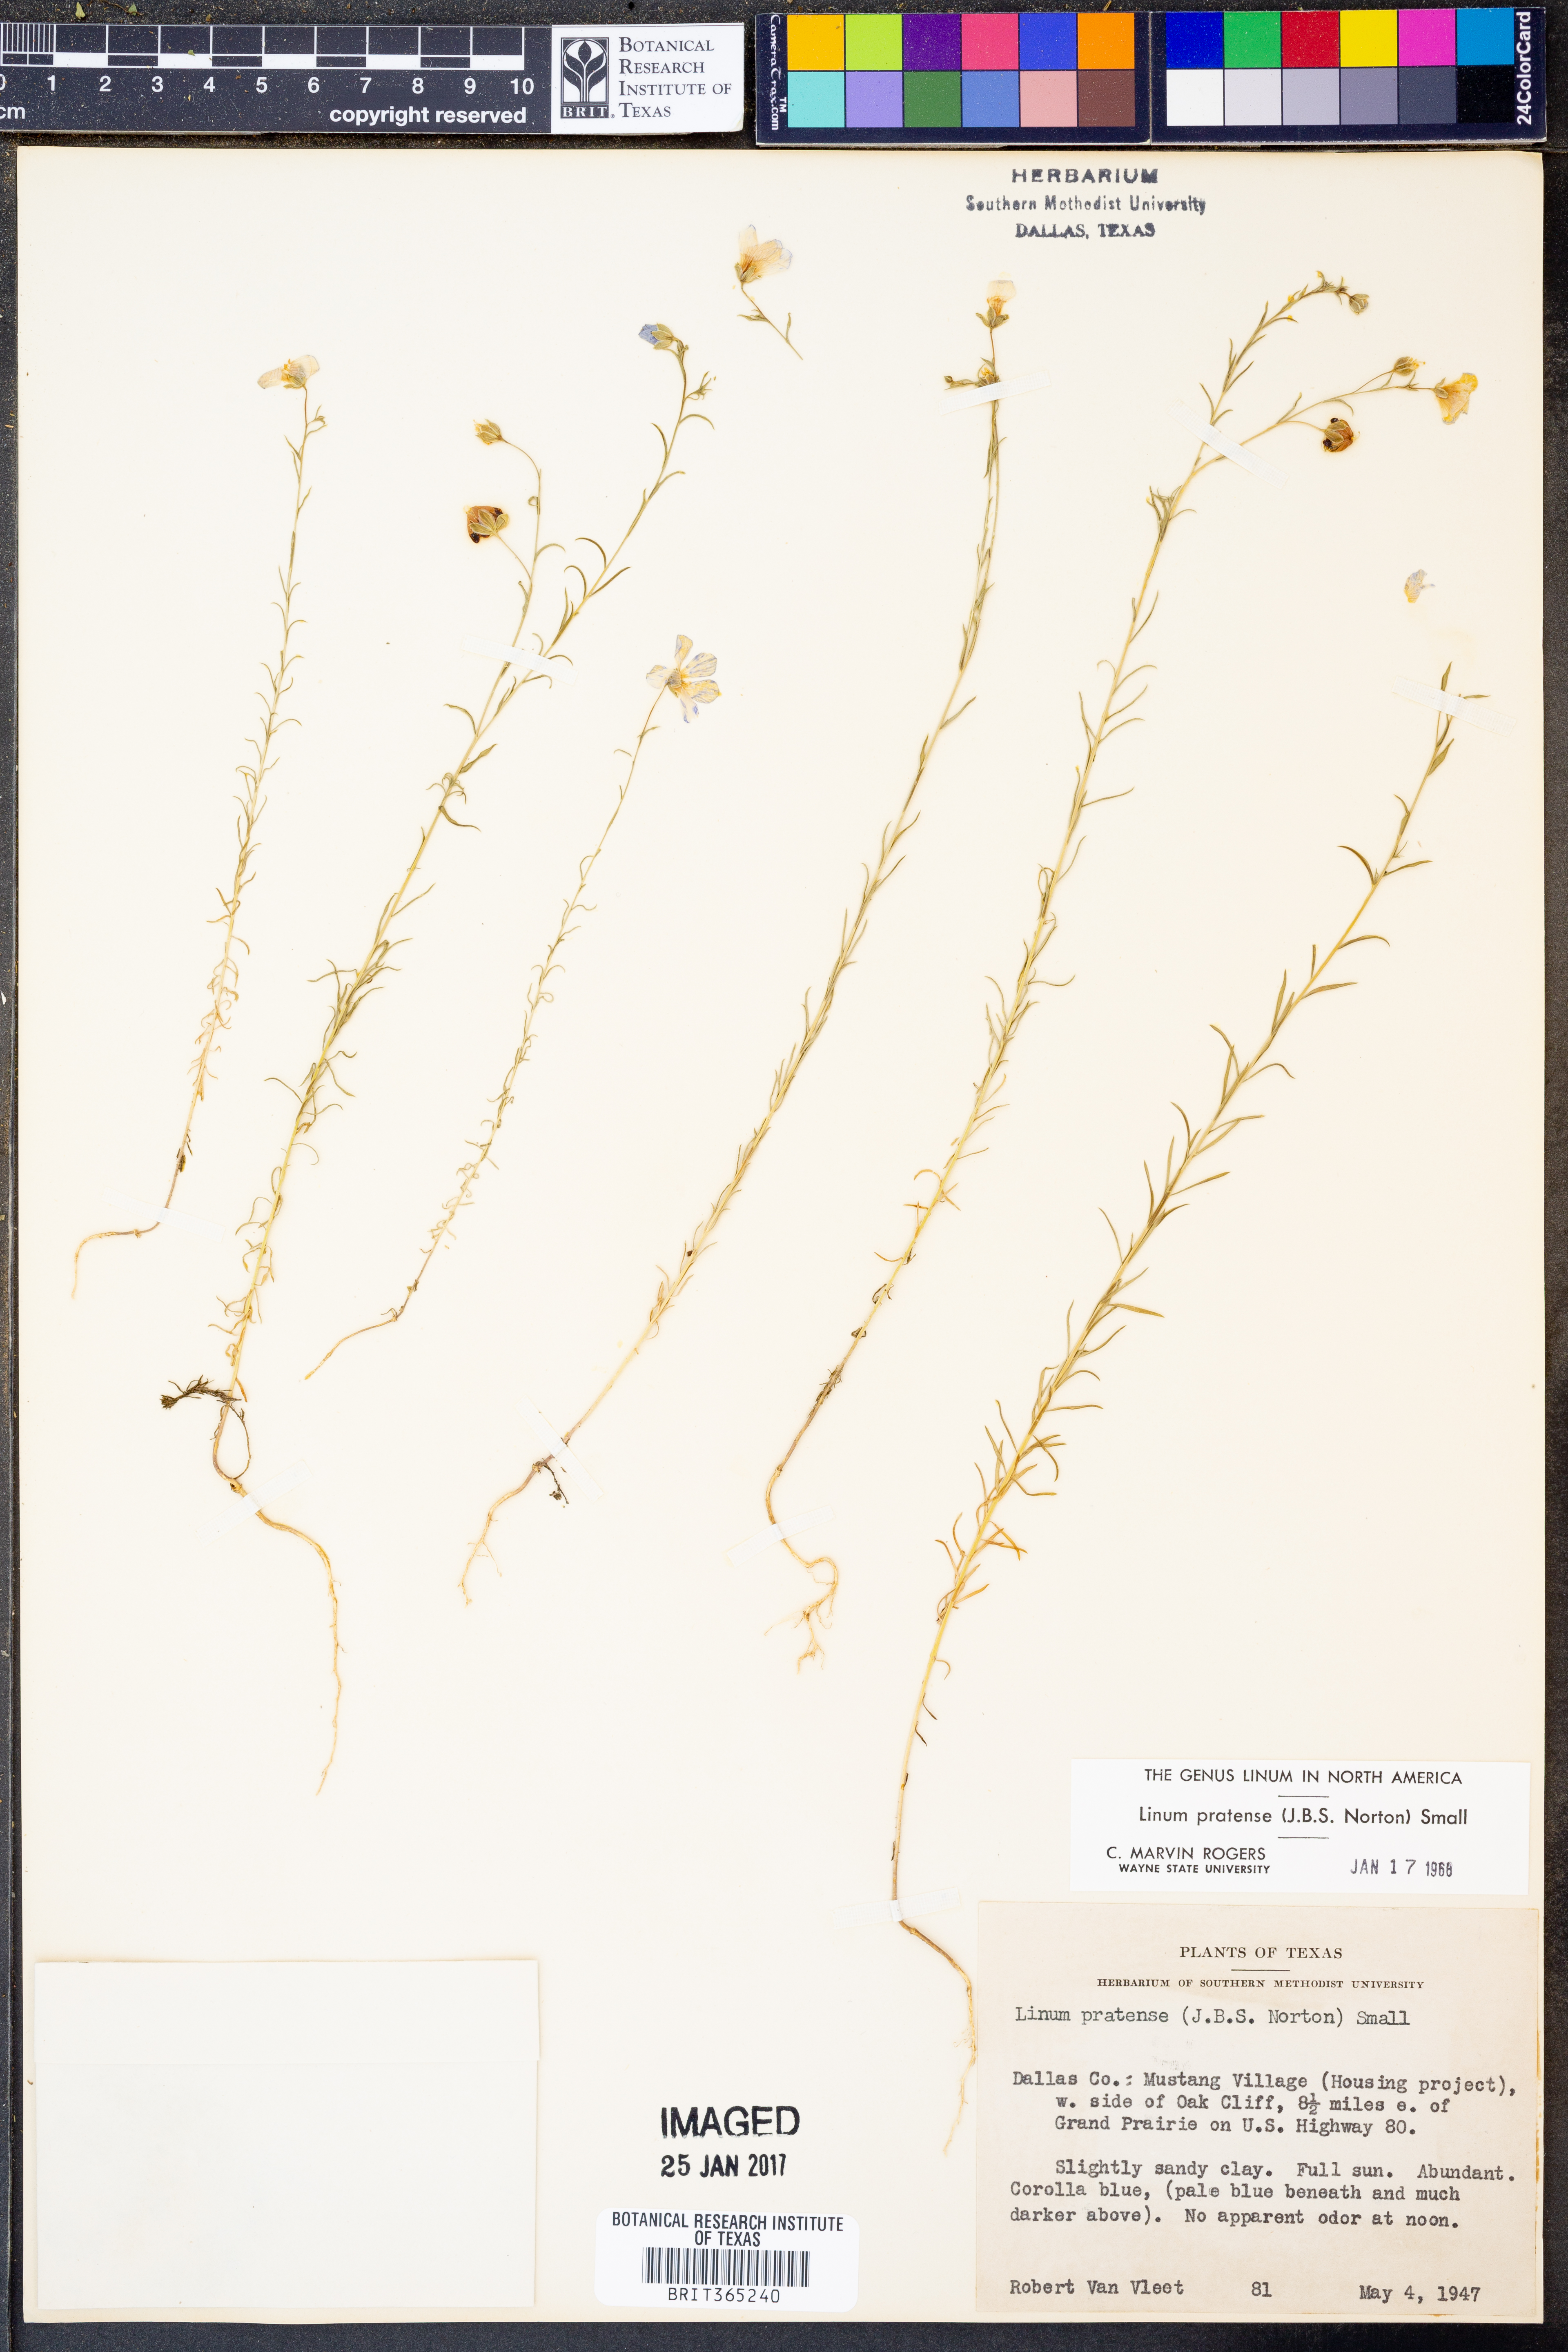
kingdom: Plantae
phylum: Tracheophyta
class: Magnoliopsida
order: Malpighiales
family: Linaceae
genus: Linum
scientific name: Linum pratense
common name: Norton's flax
